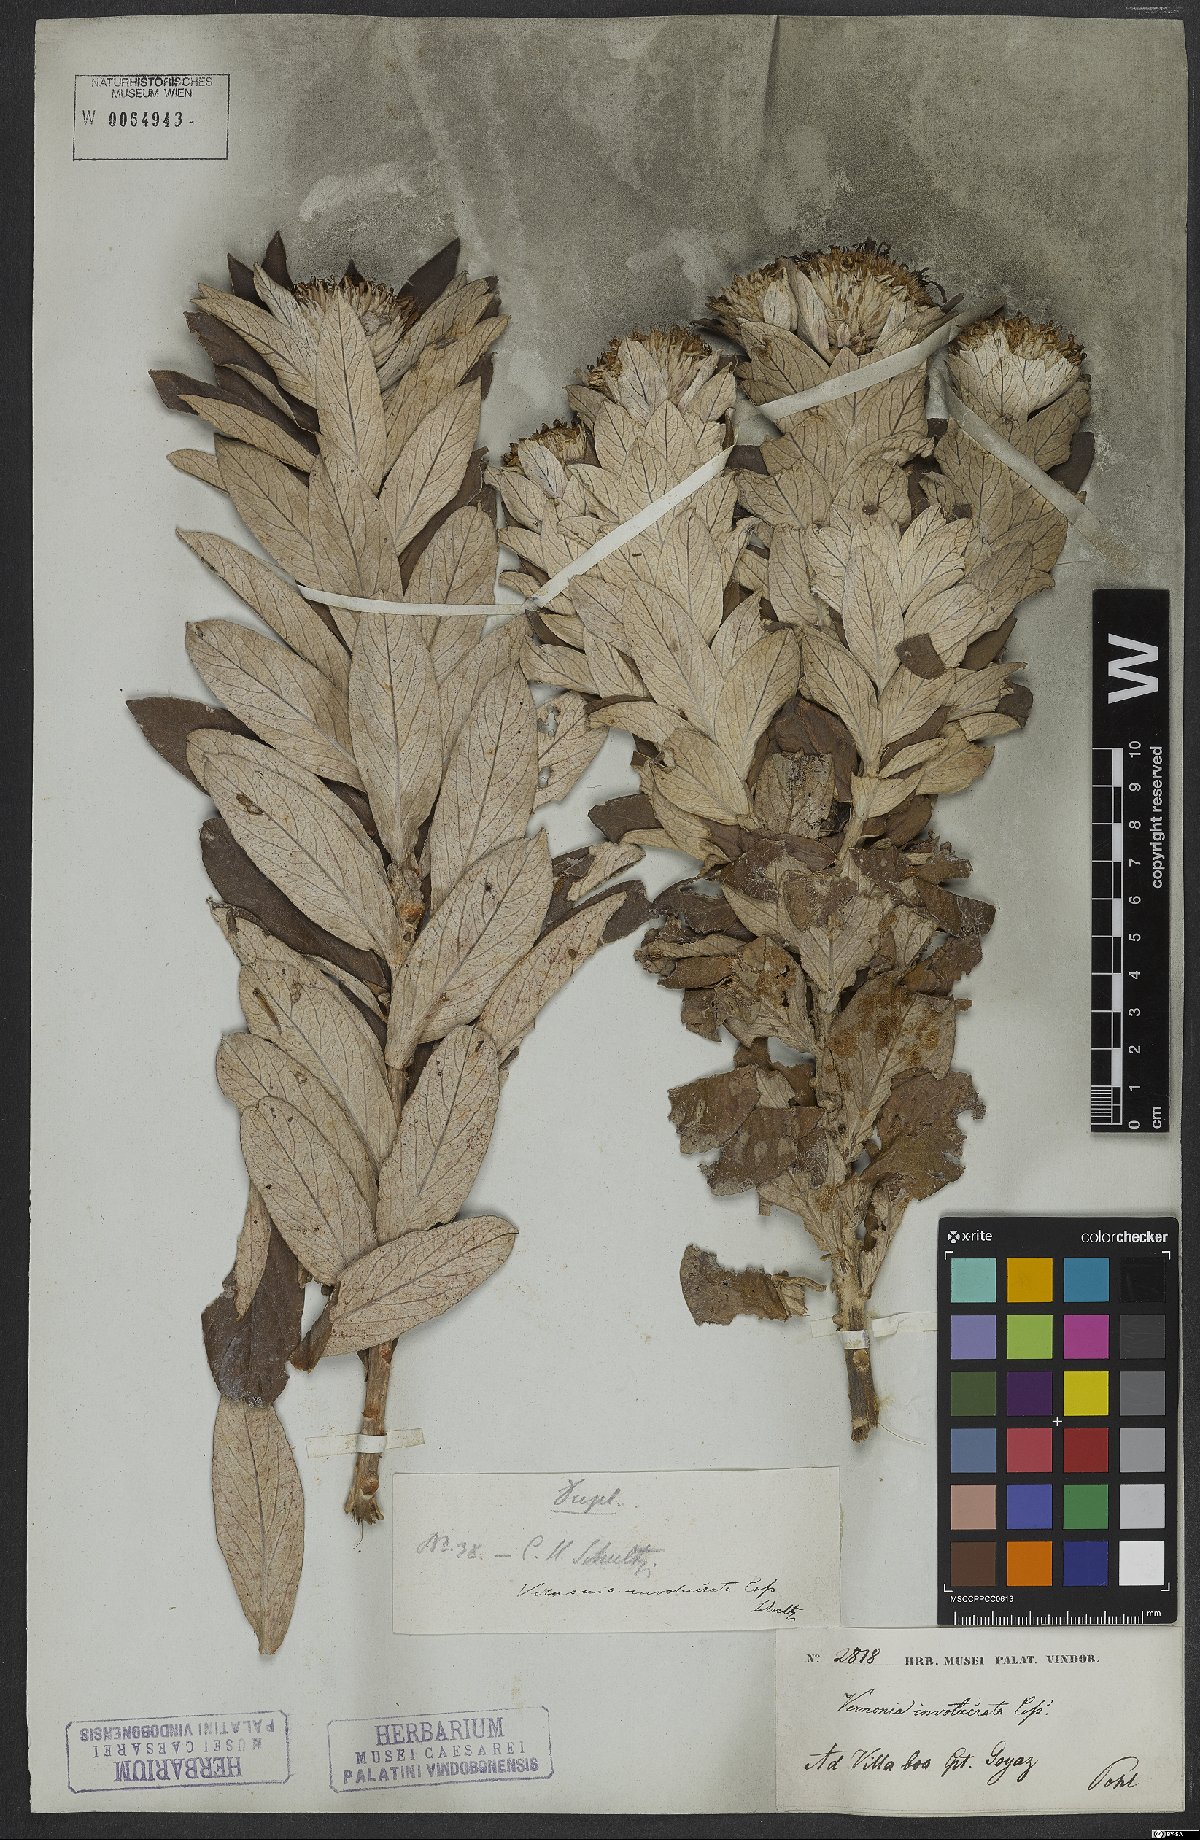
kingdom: Plantae
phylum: Tracheophyta
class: Magnoliopsida
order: Asterales
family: Asteraceae
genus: Lessingianthus
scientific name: Lessingianthus venosissimus
